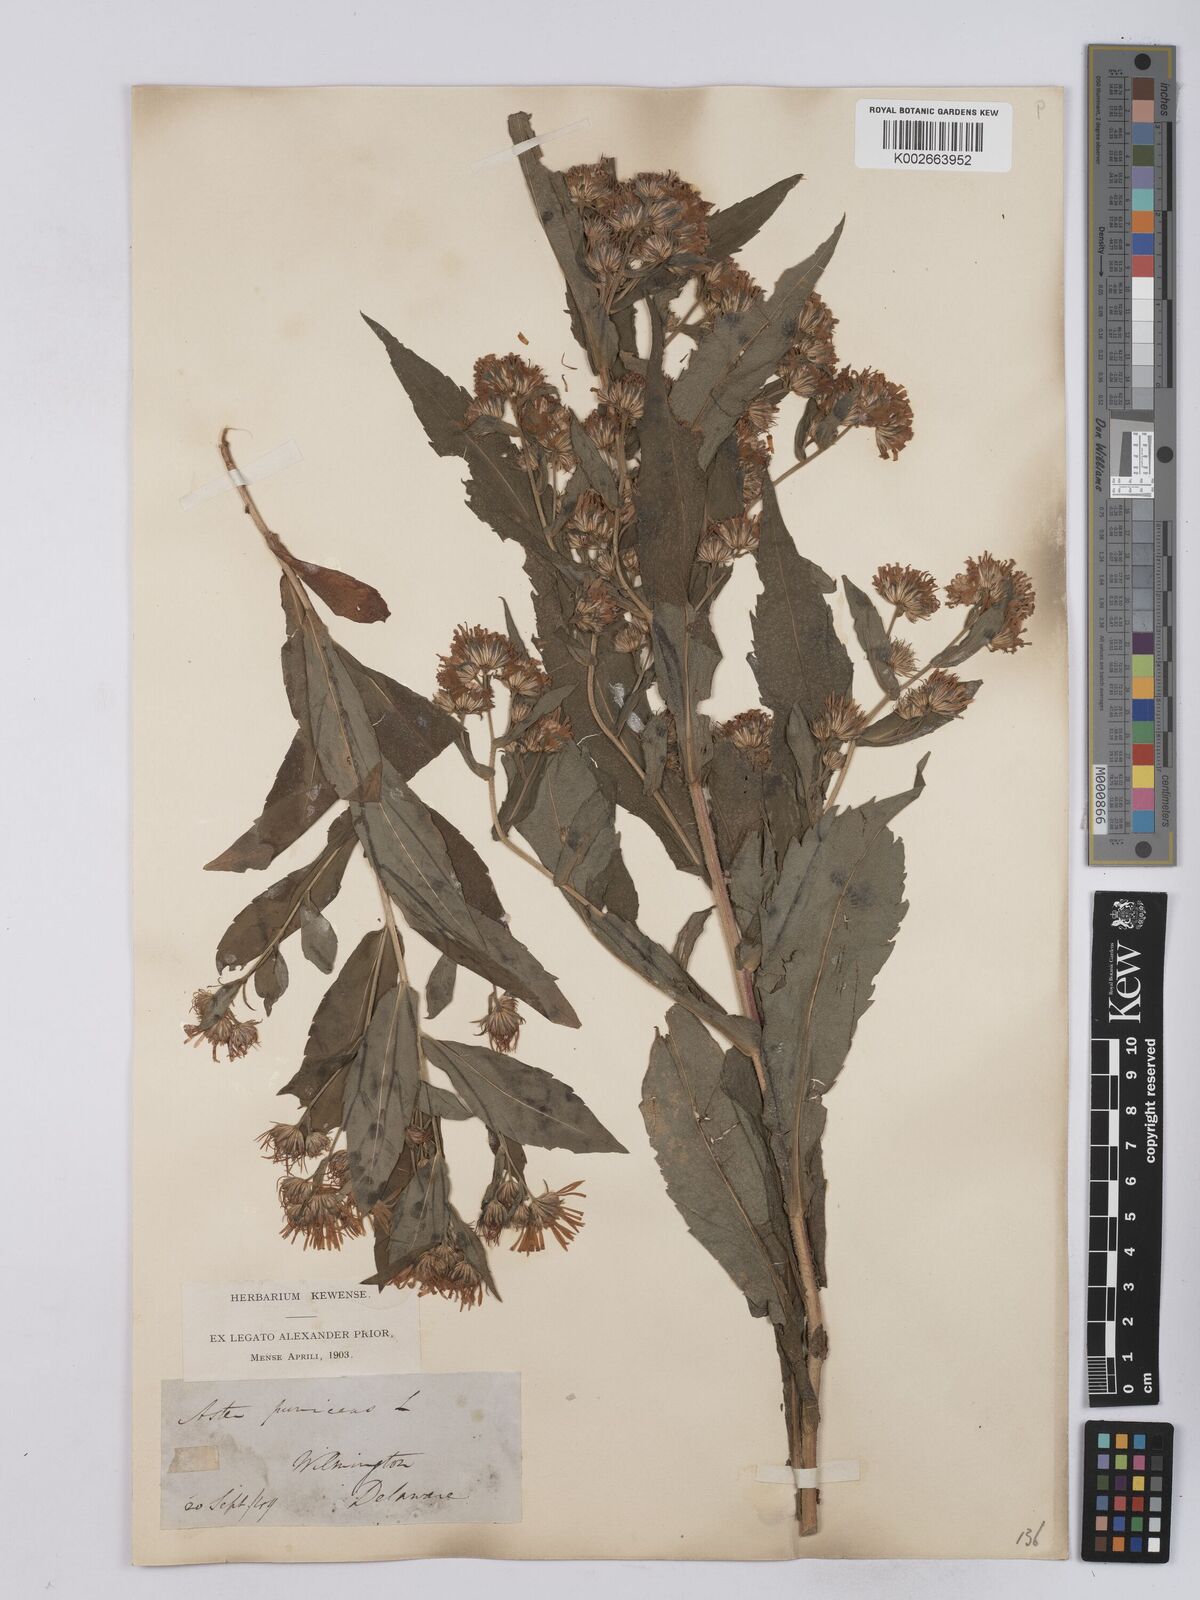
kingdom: Plantae
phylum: Tracheophyta
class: Magnoliopsida
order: Asterales
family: Asteraceae
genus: Symphyotrichum
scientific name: Symphyotrichum puniceum
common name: Bog aster
